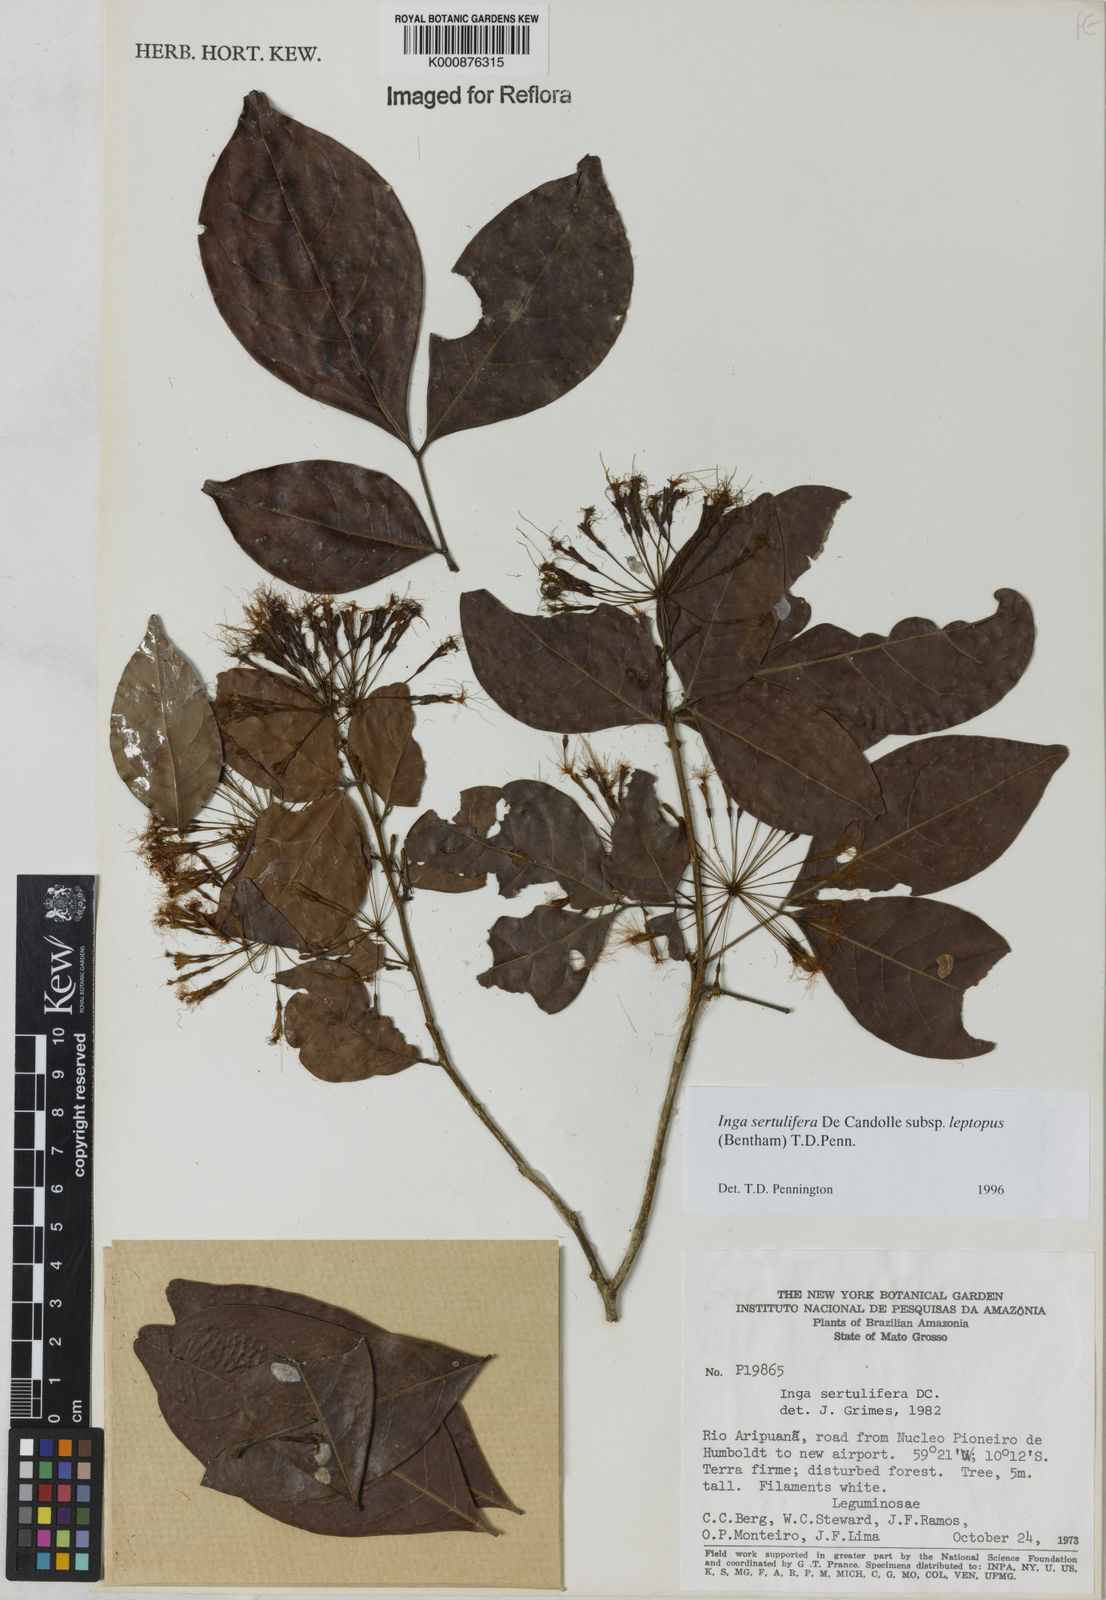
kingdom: Plantae
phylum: Tracheophyta
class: Magnoliopsida
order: Fabales
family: Fabaceae
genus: Inga
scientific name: Inga sertulifera
